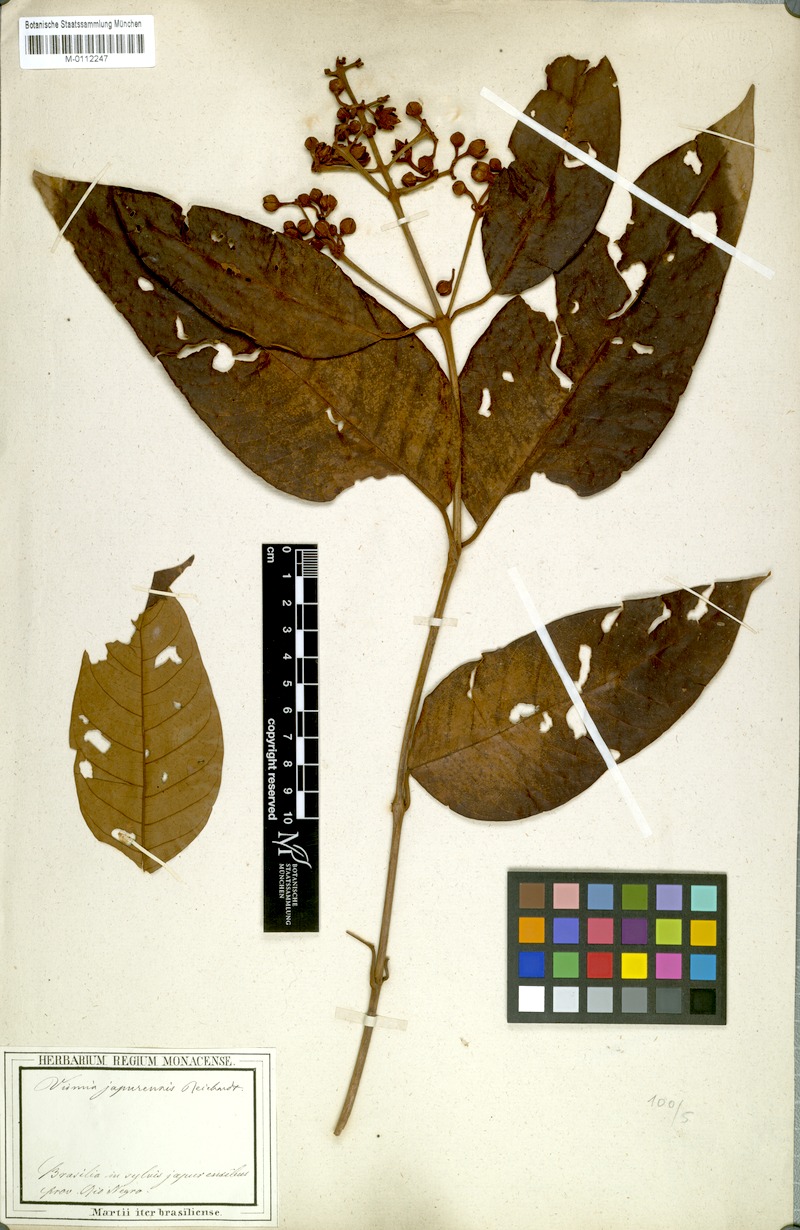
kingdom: Plantae
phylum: Tracheophyta
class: Magnoliopsida
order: Malpighiales
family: Hypericaceae
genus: Vismia
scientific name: Vismia japurensis
